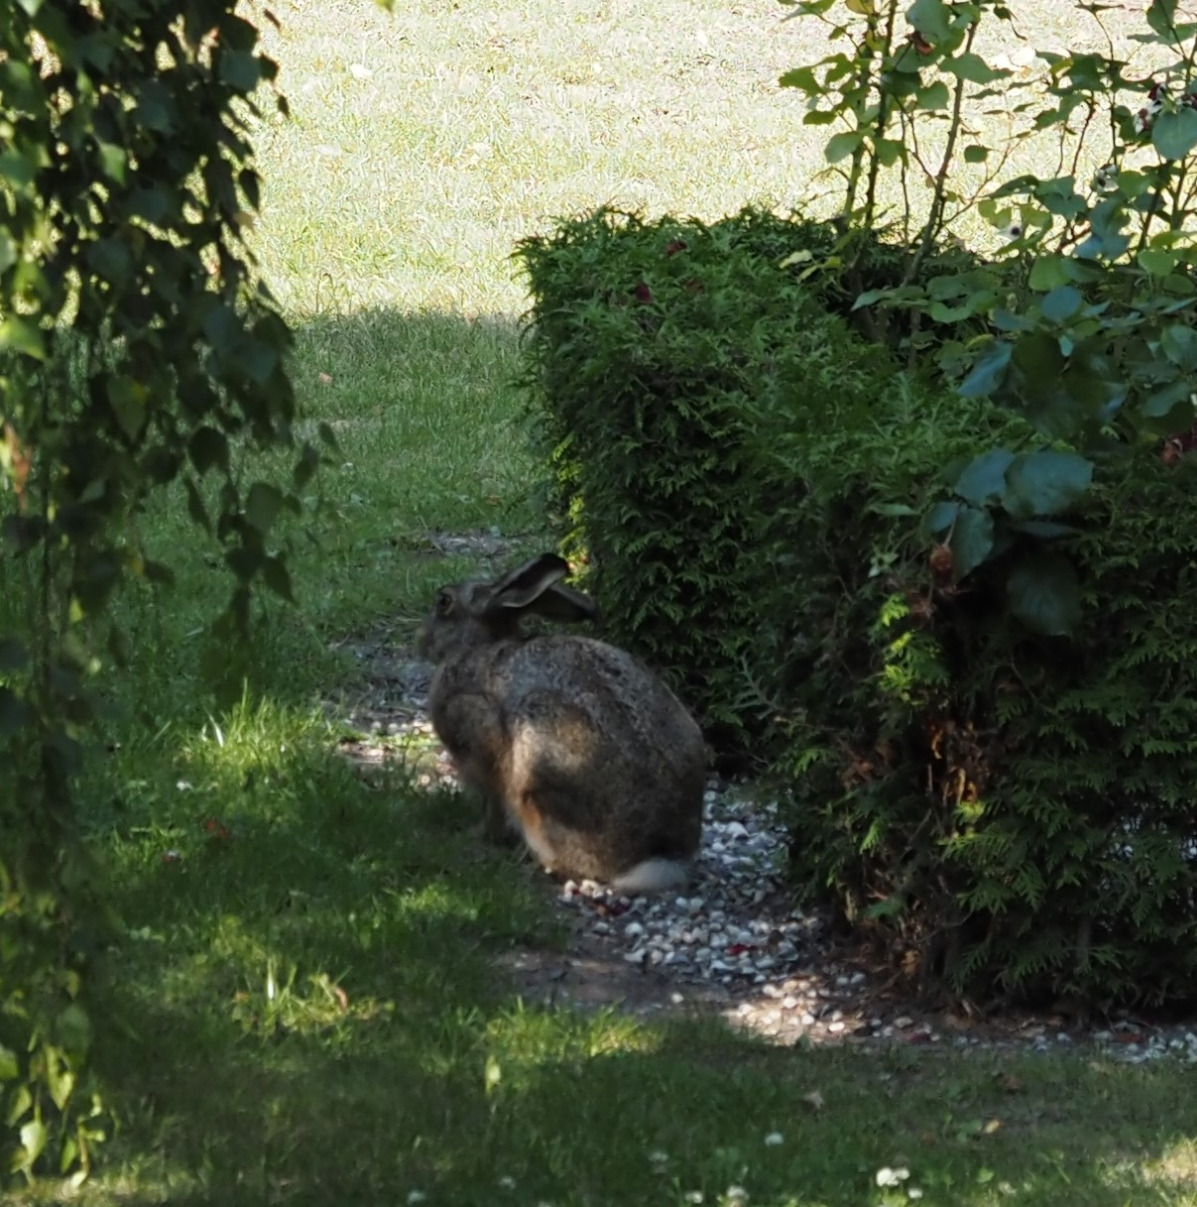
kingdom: Animalia
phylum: Chordata
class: Mammalia
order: Lagomorpha
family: Leporidae
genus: Lepus
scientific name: Lepus europaeus
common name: Hare
